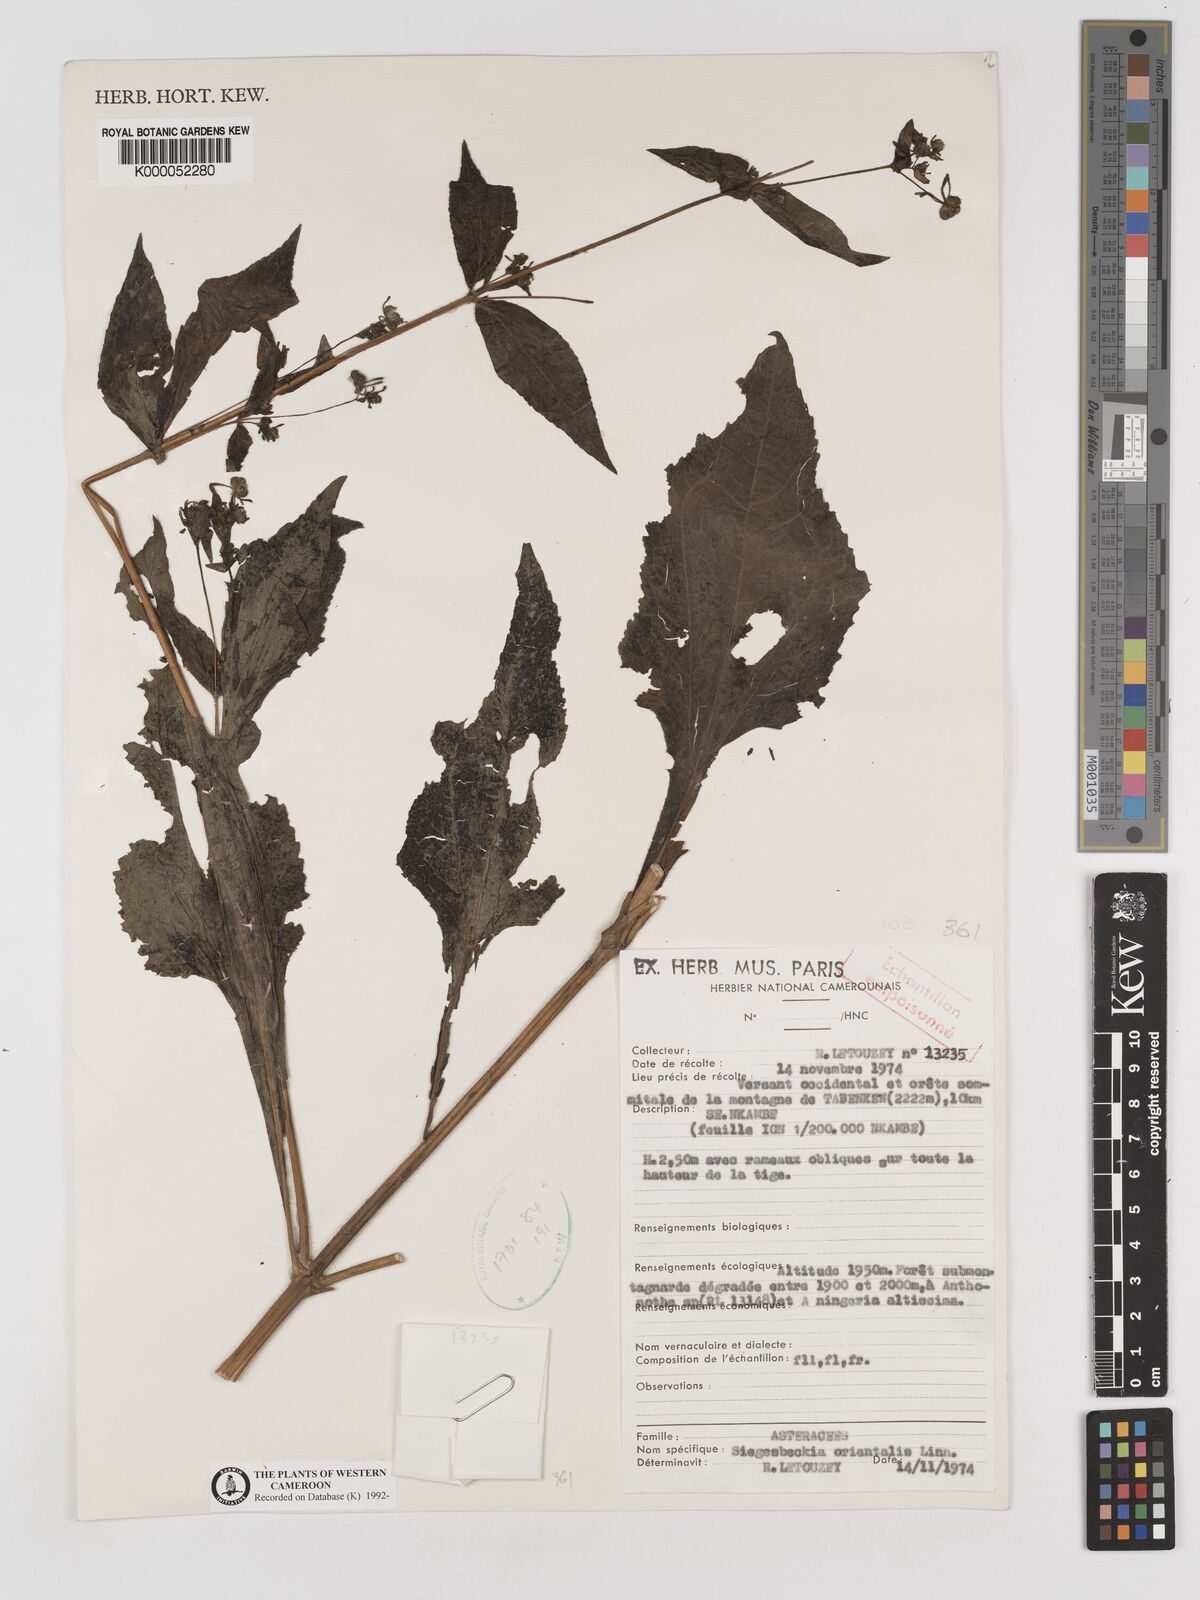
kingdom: Plantae
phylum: Tracheophyta
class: Magnoliopsida
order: Asterales
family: Asteraceae
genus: Sigesbeckia
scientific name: Sigesbeckia
